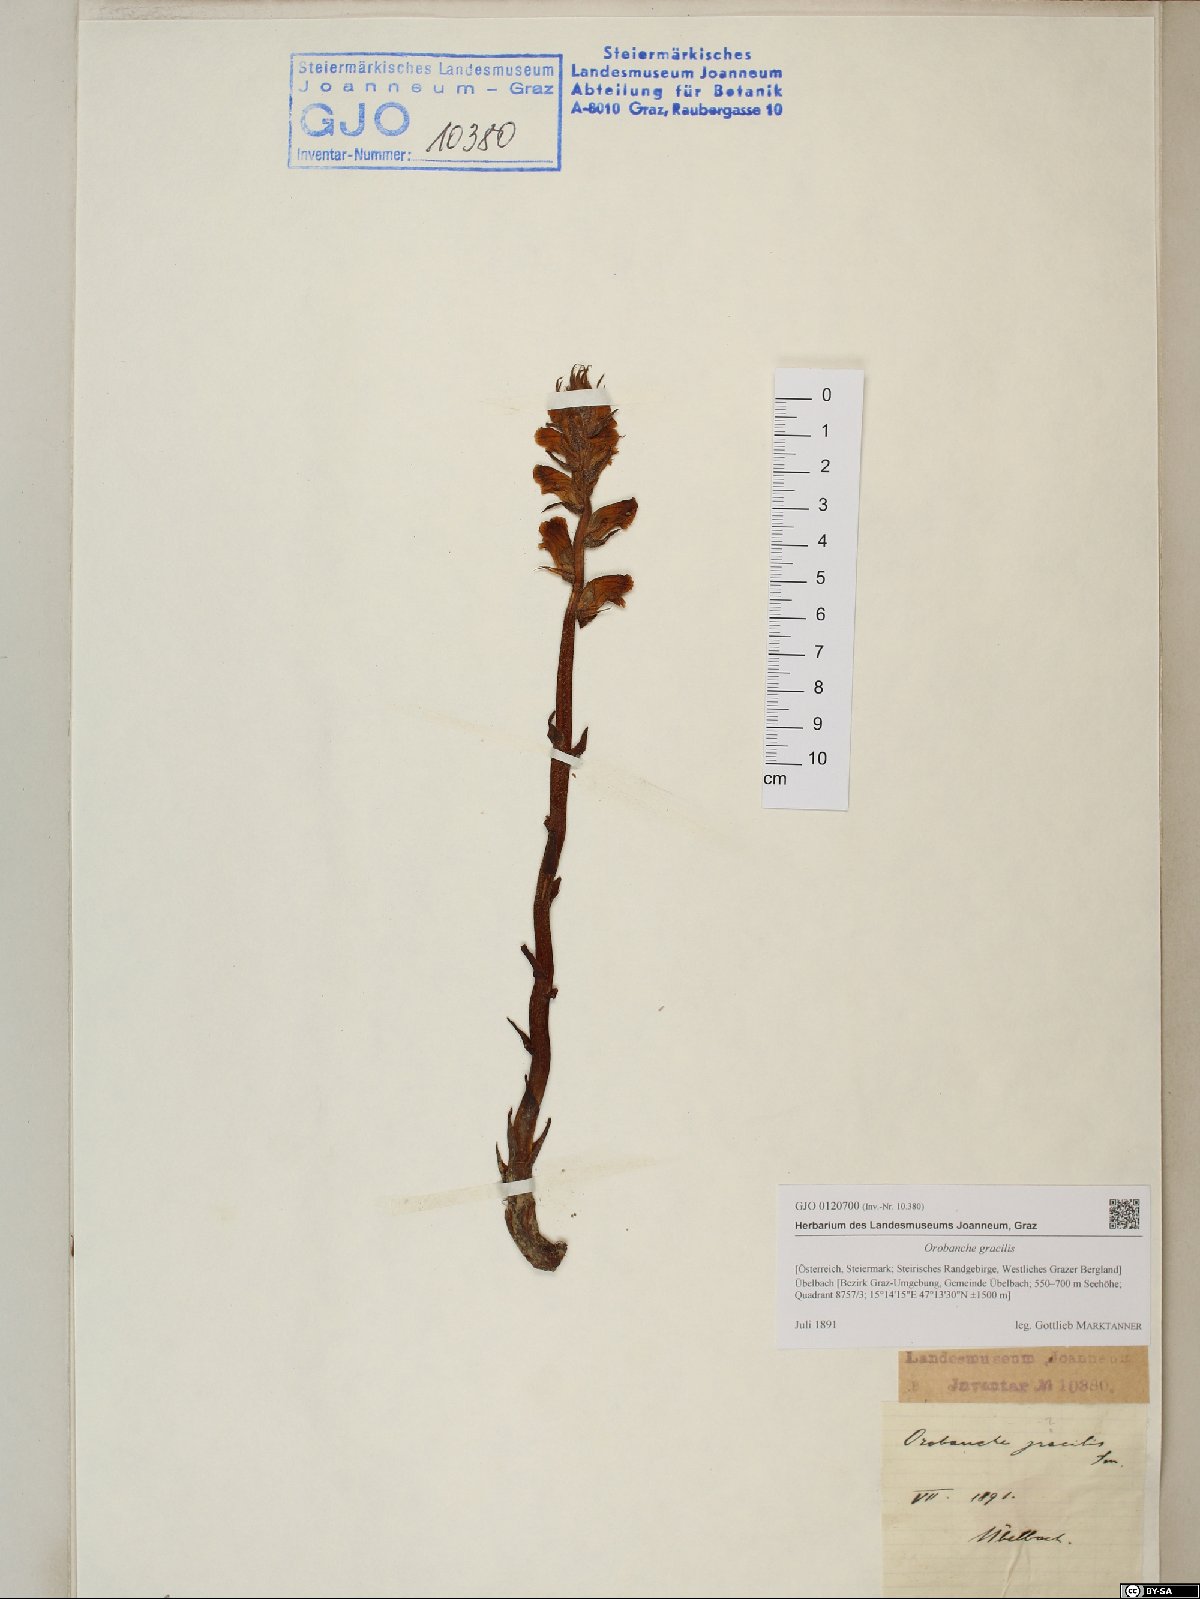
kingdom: Plantae
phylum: Tracheophyta
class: Magnoliopsida
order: Lamiales
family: Orobanchaceae
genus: Orobanche
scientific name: Orobanche gracilis
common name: Slender broomrape
